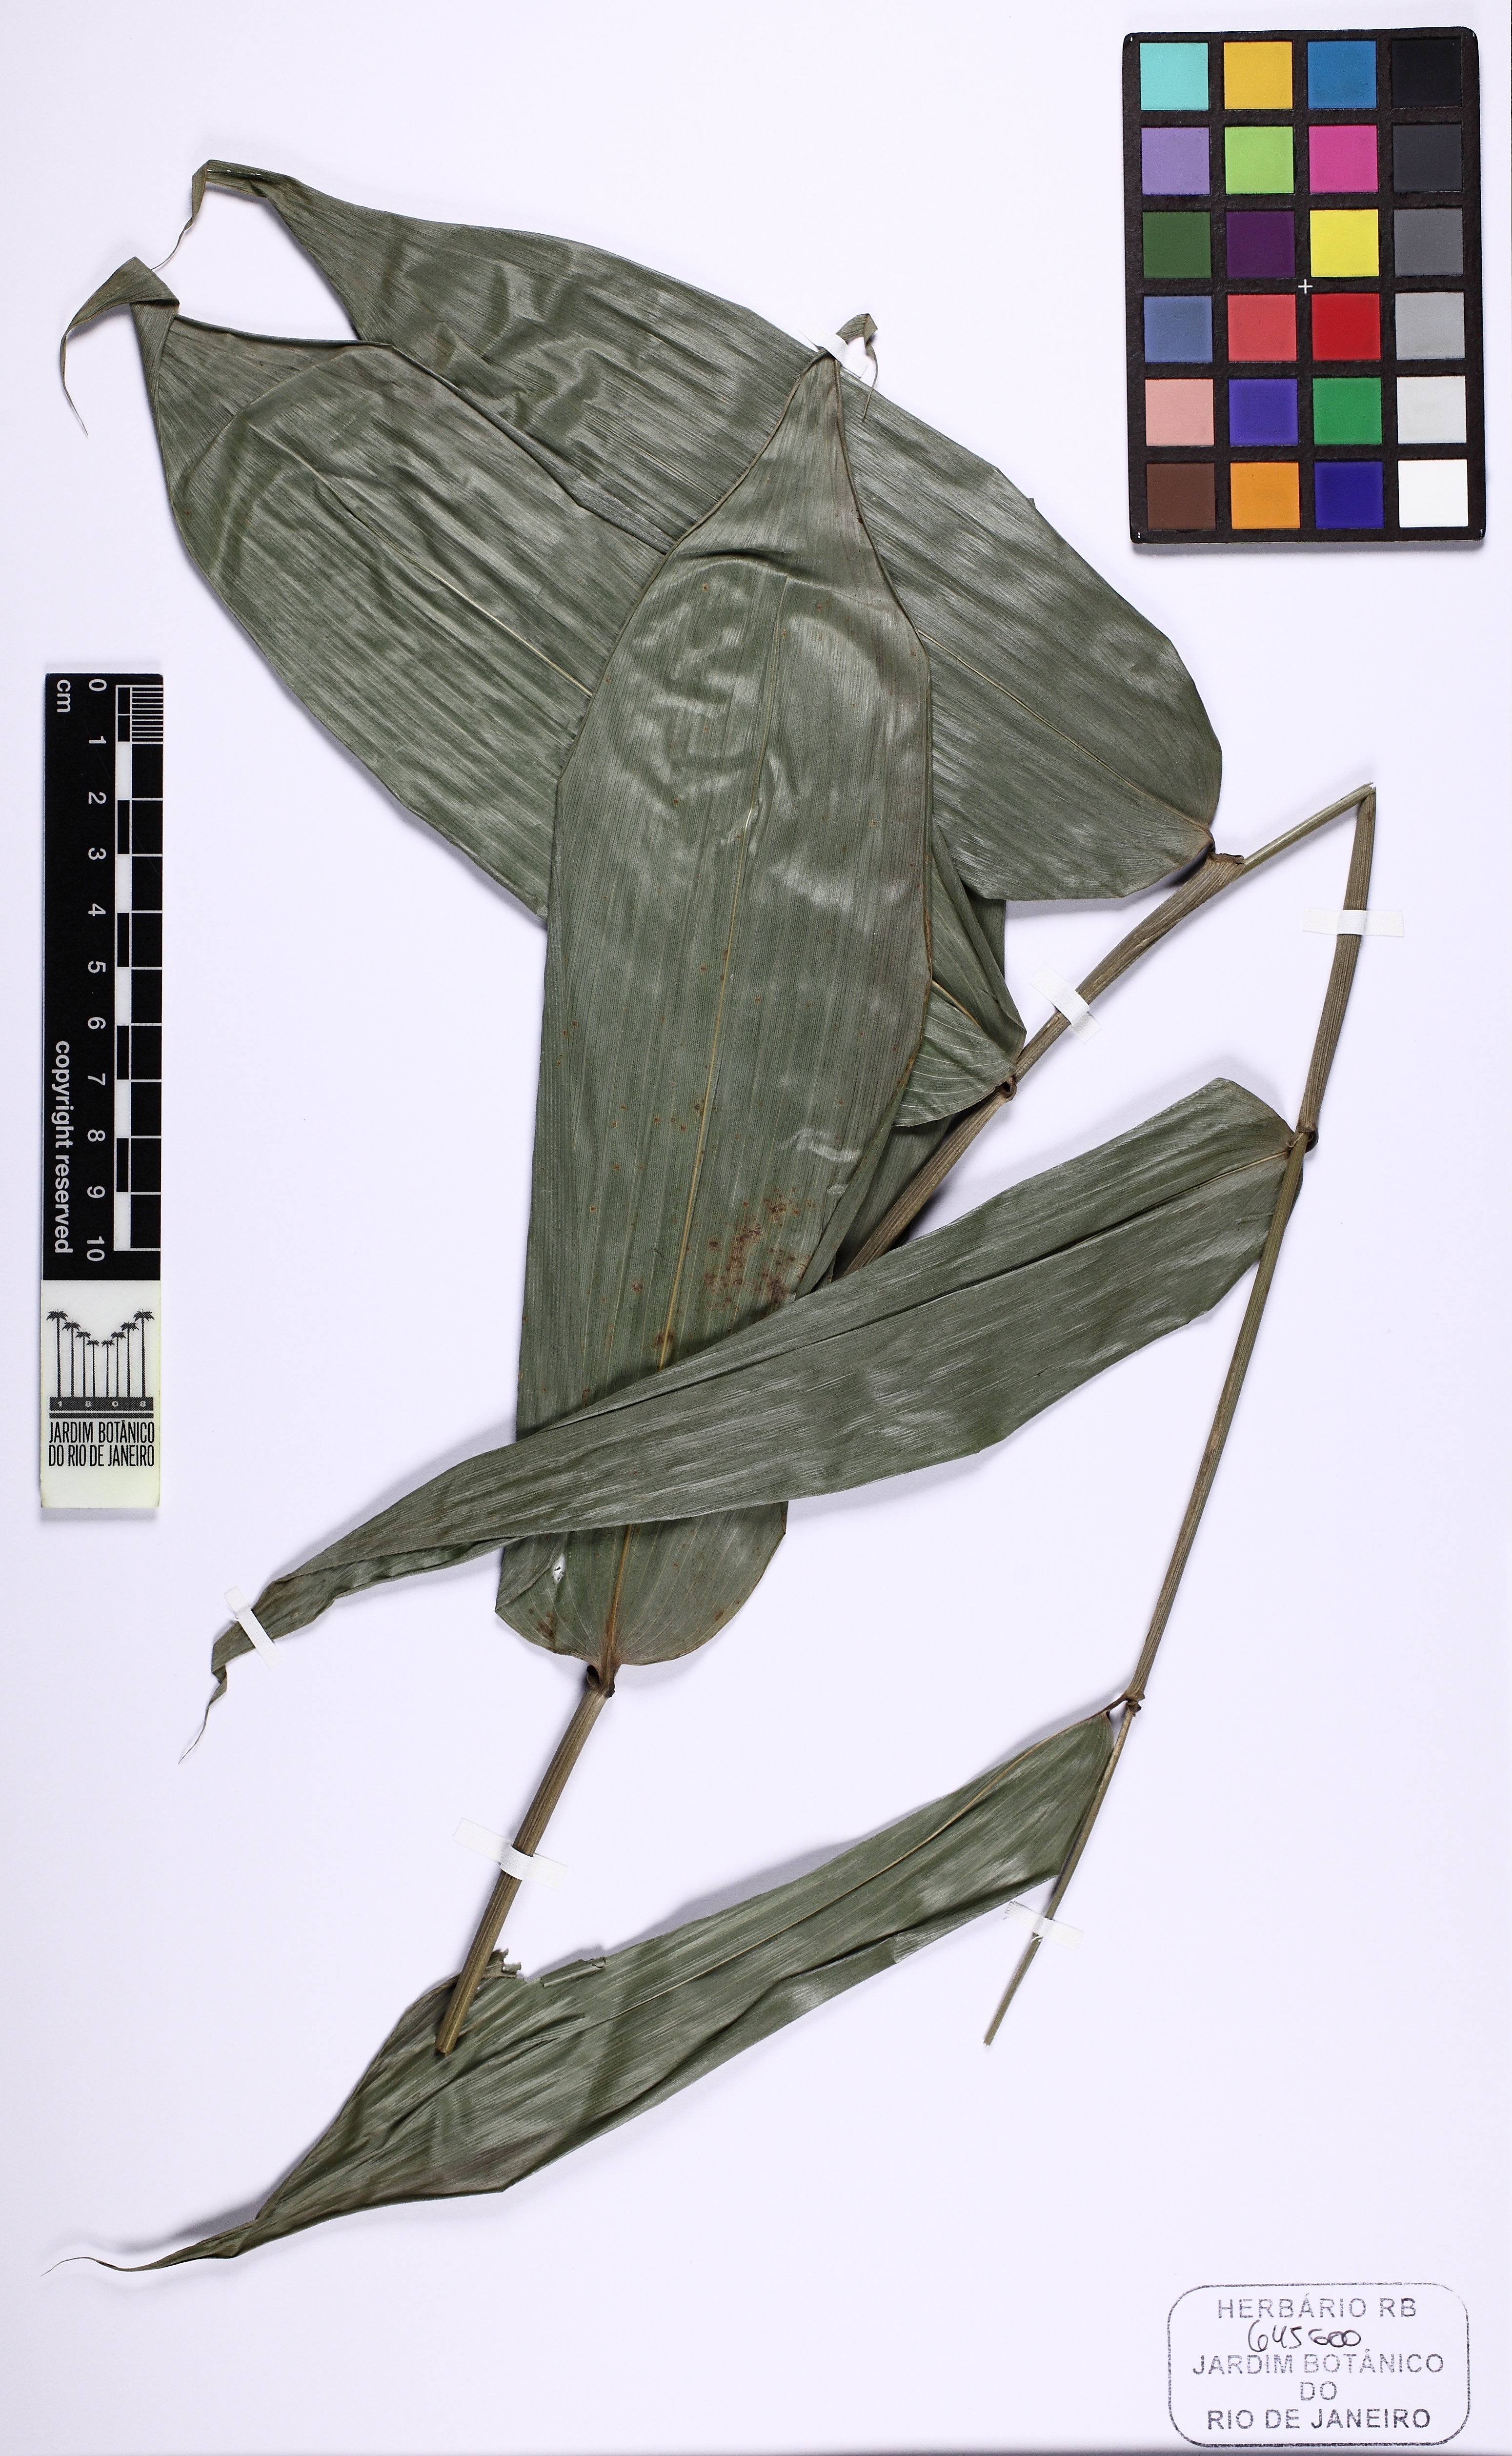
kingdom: Plantae
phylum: Tracheophyta
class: Liliopsida
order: Poales
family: Poaceae
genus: Olyra
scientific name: Olyra
